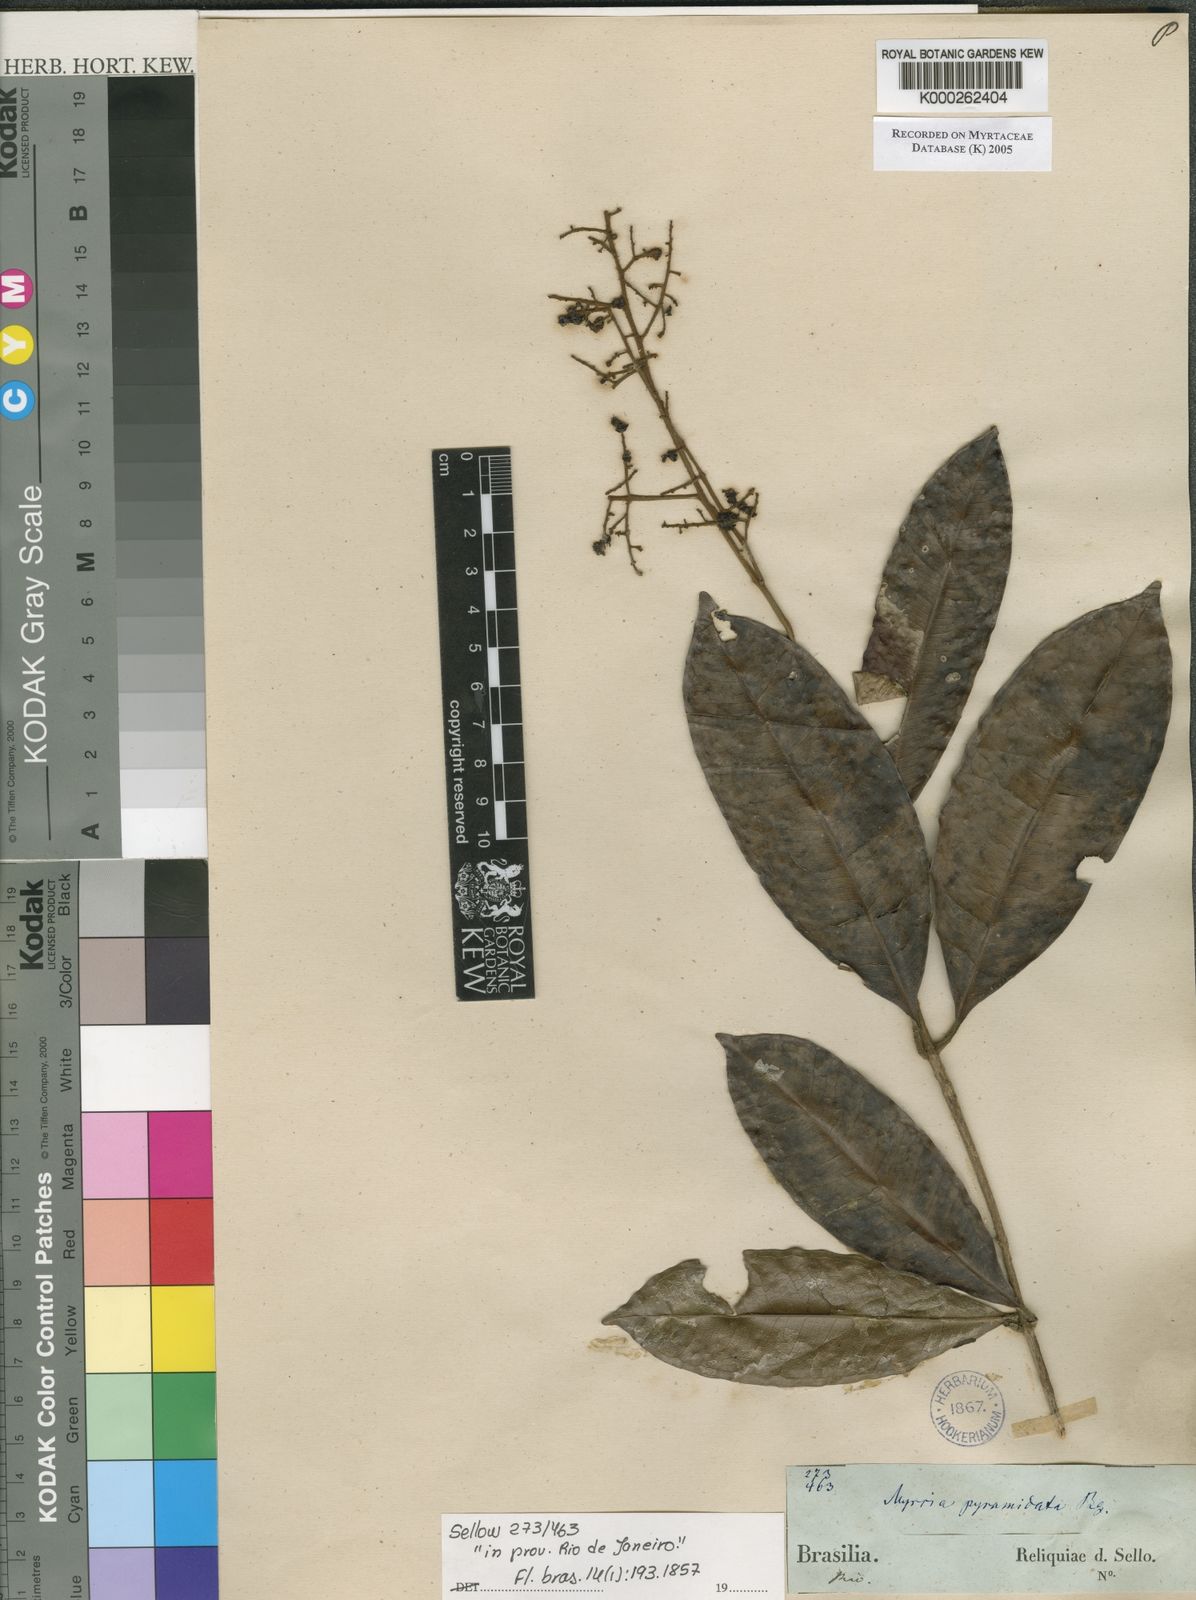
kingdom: Plantae
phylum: Tracheophyta
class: Magnoliopsida
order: Myrtales
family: Myrtaceae
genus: Myrcia
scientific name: Myrcia rubiginosa
